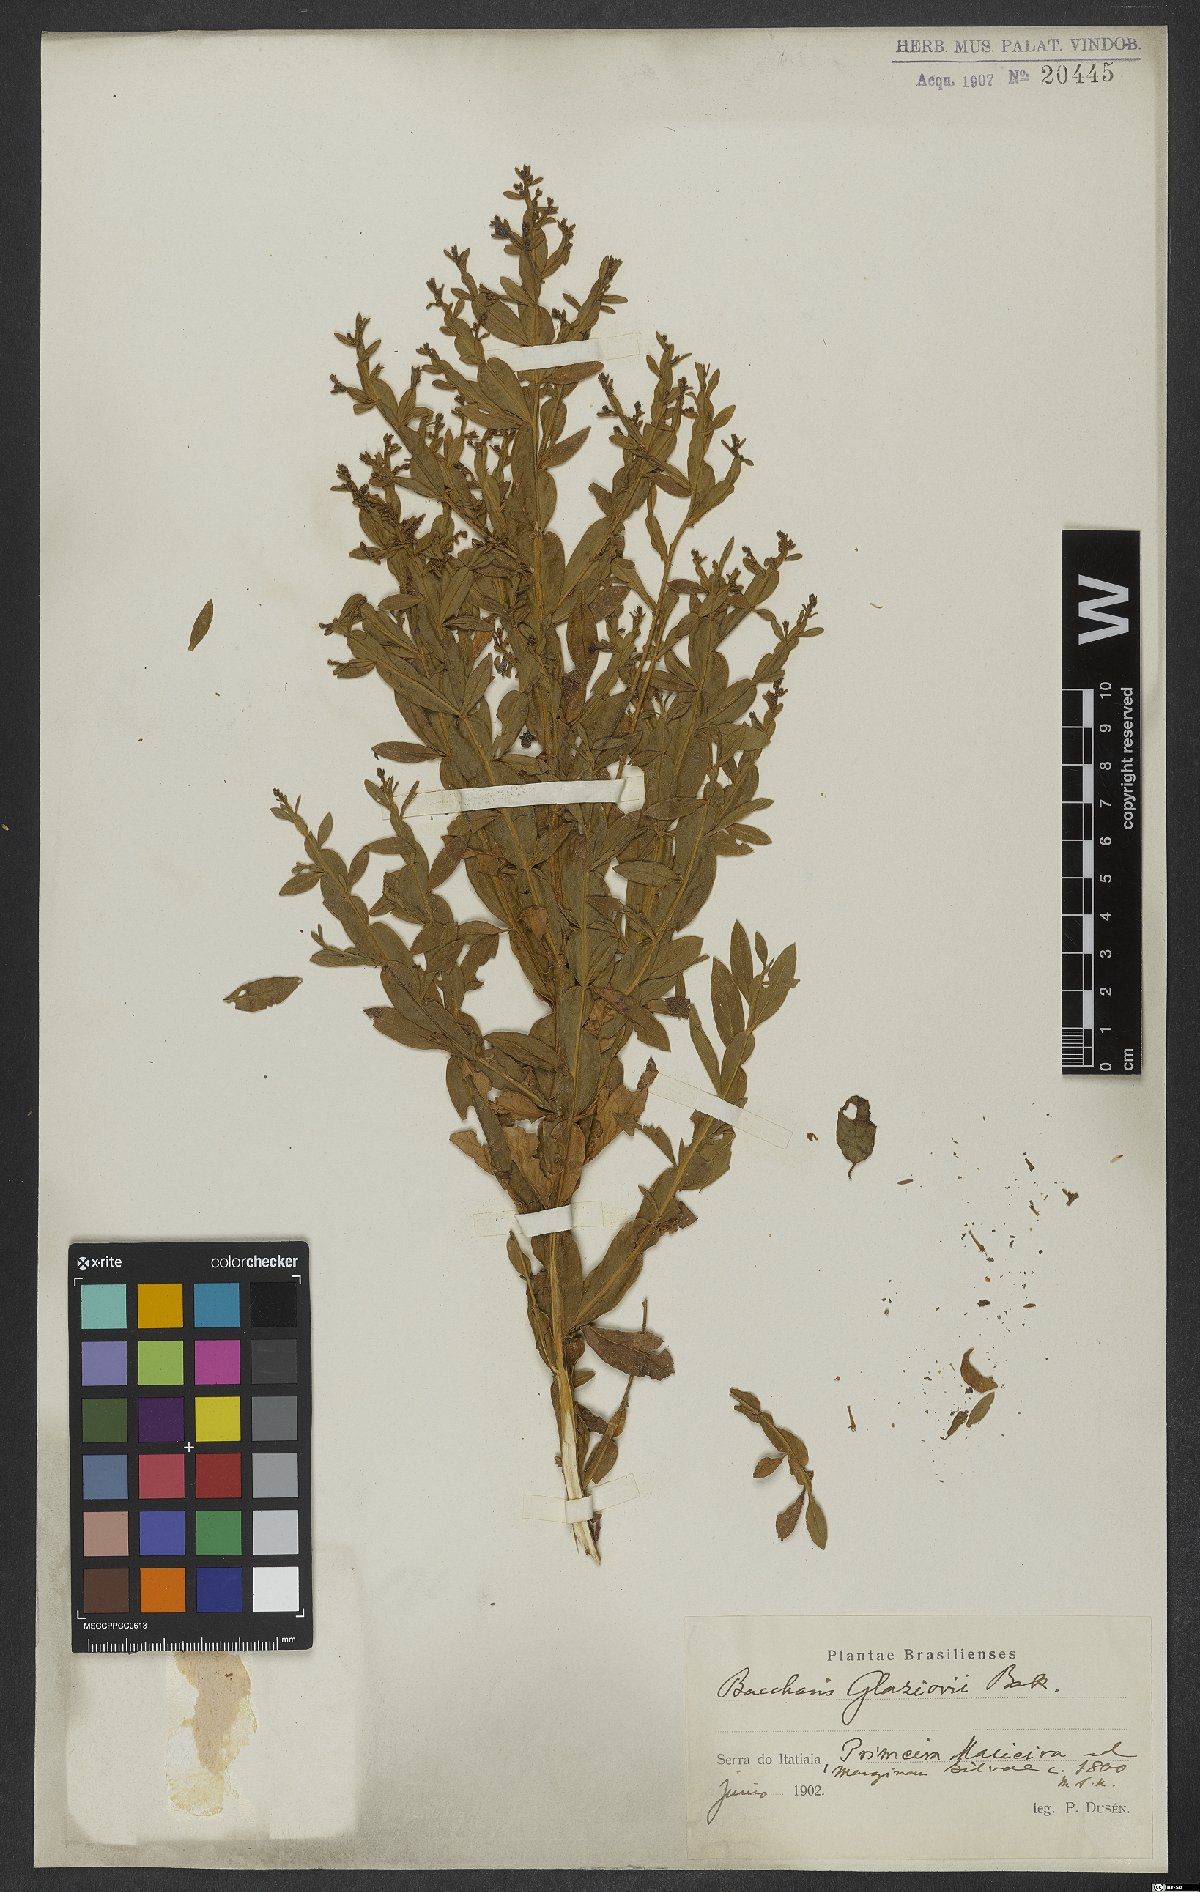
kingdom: Plantae
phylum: Tracheophyta
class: Magnoliopsida
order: Asterales
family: Asteraceae
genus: Baccharis
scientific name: Baccharis glaziovii
